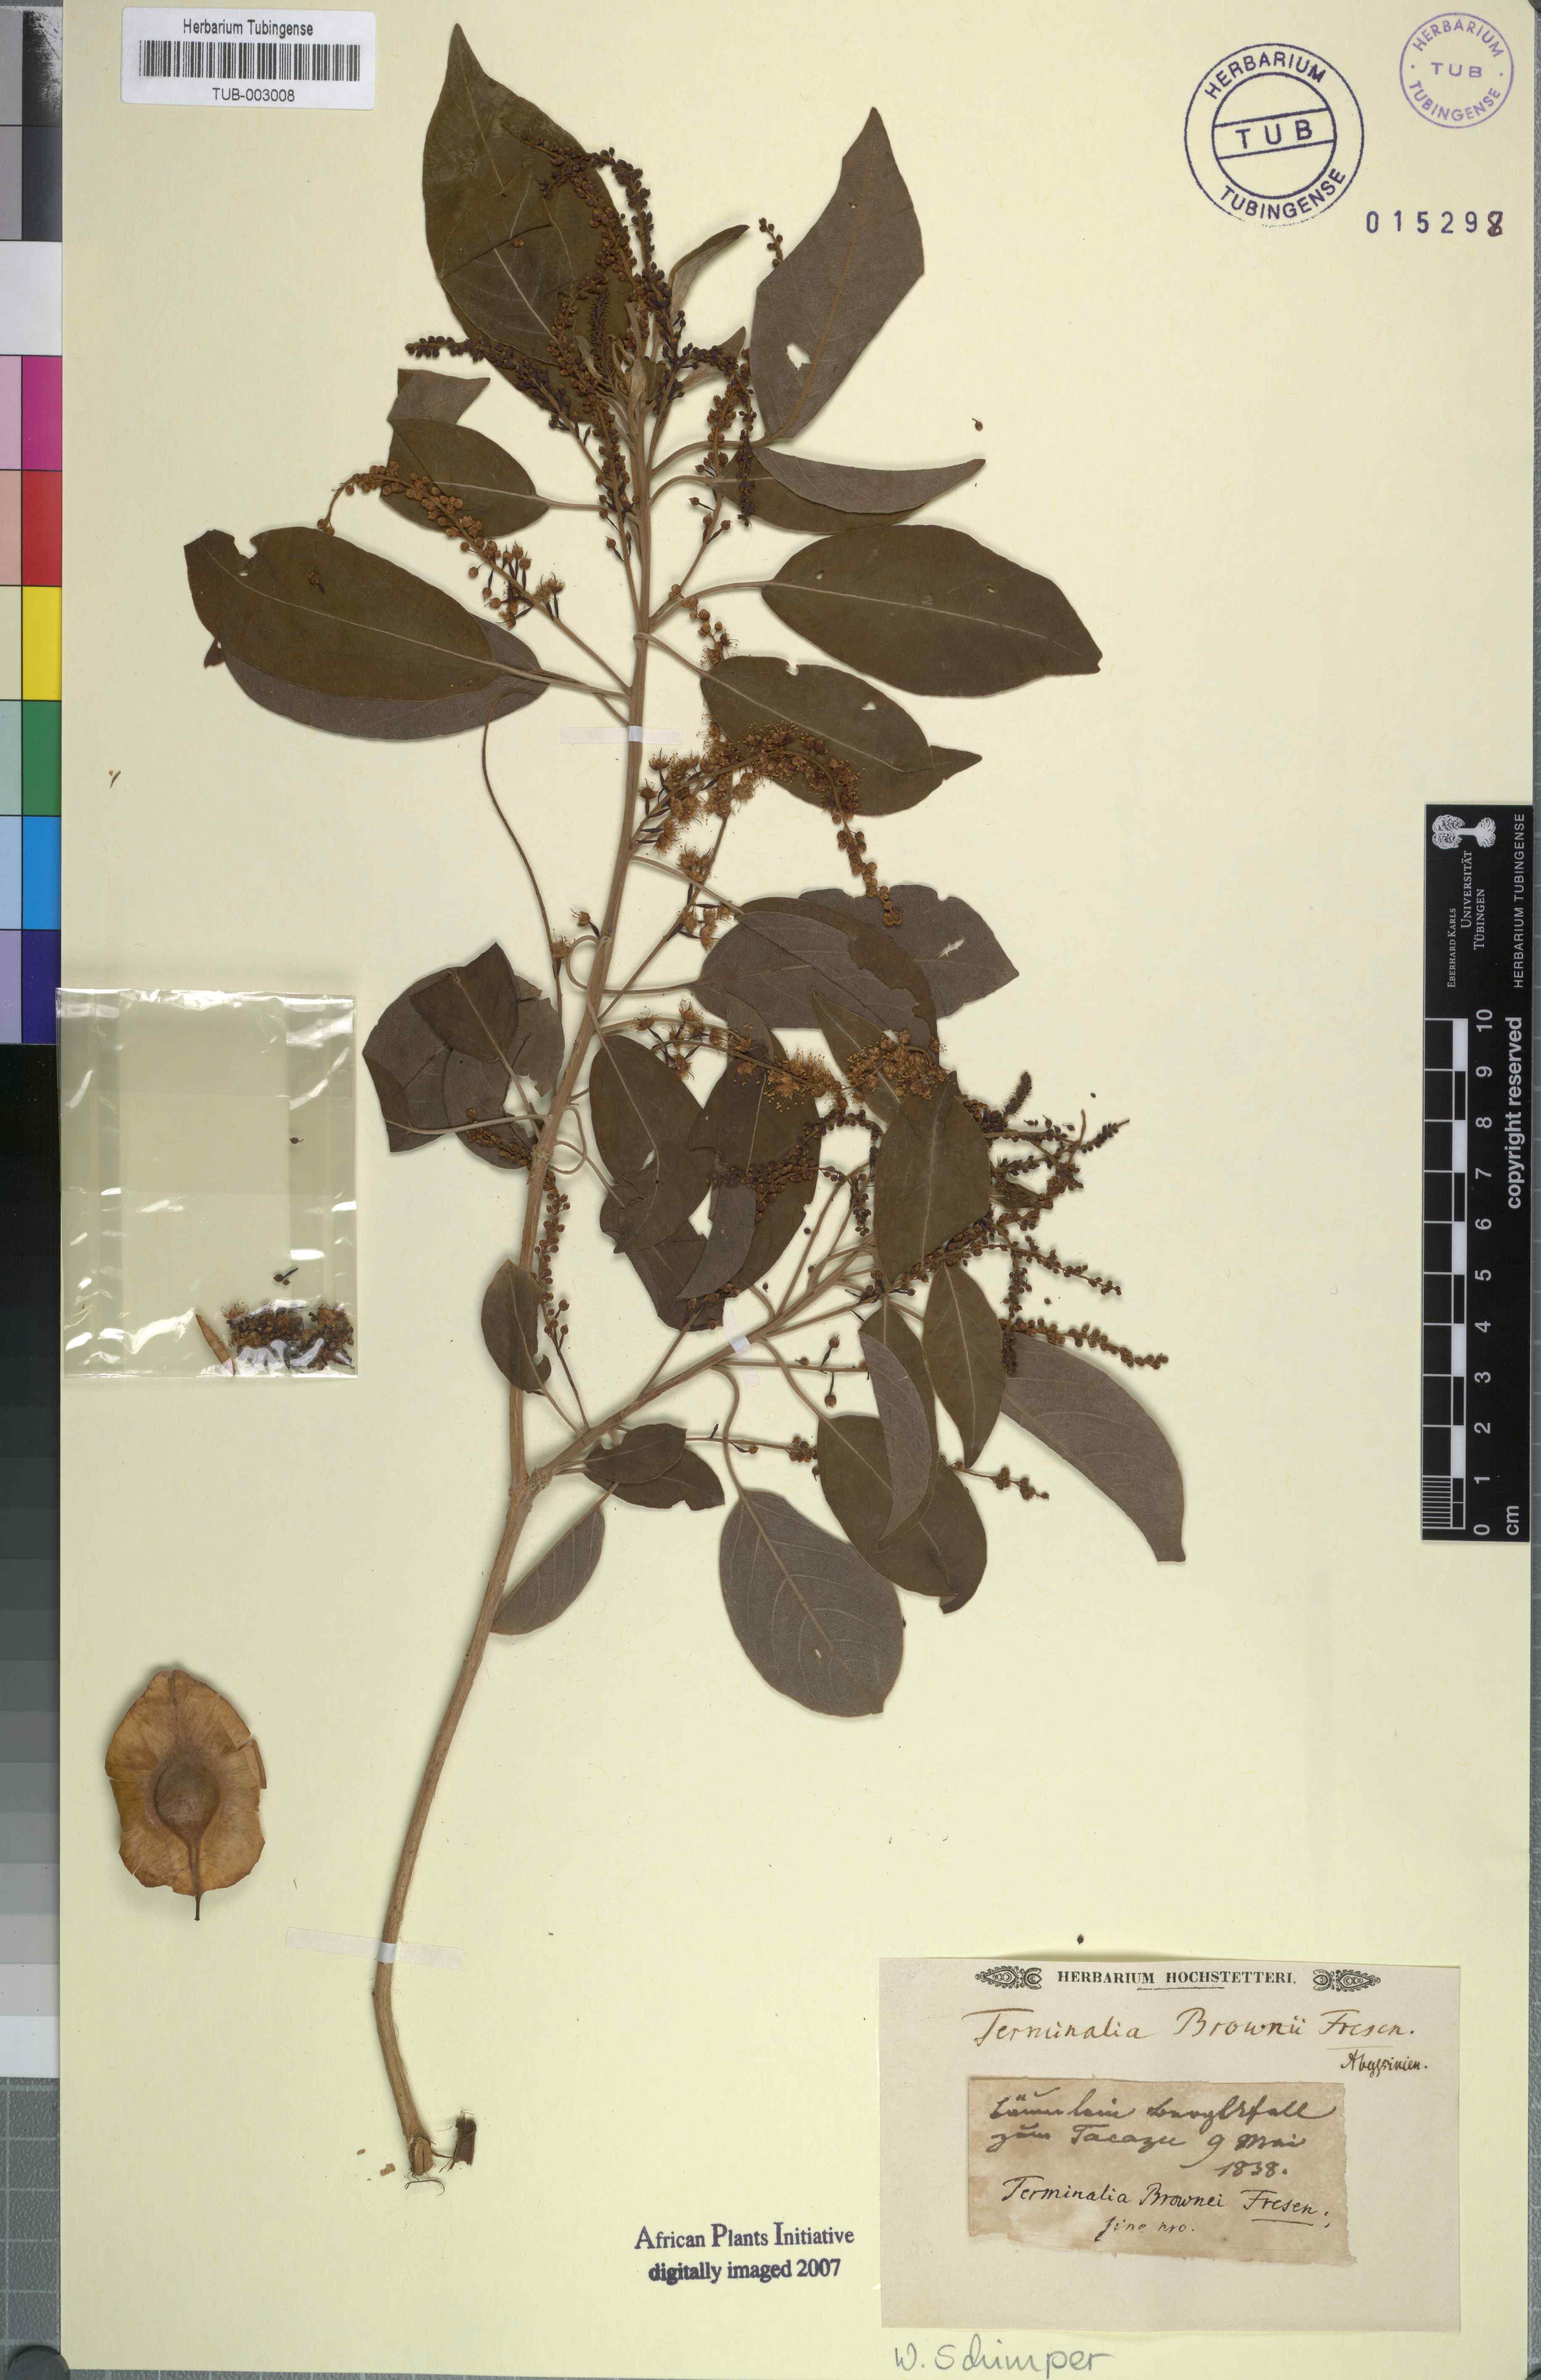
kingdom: Plantae
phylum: Tracheophyta
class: Magnoliopsida
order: Myrtales
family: Combretaceae
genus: Terminalia
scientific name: Terminalia brownii
